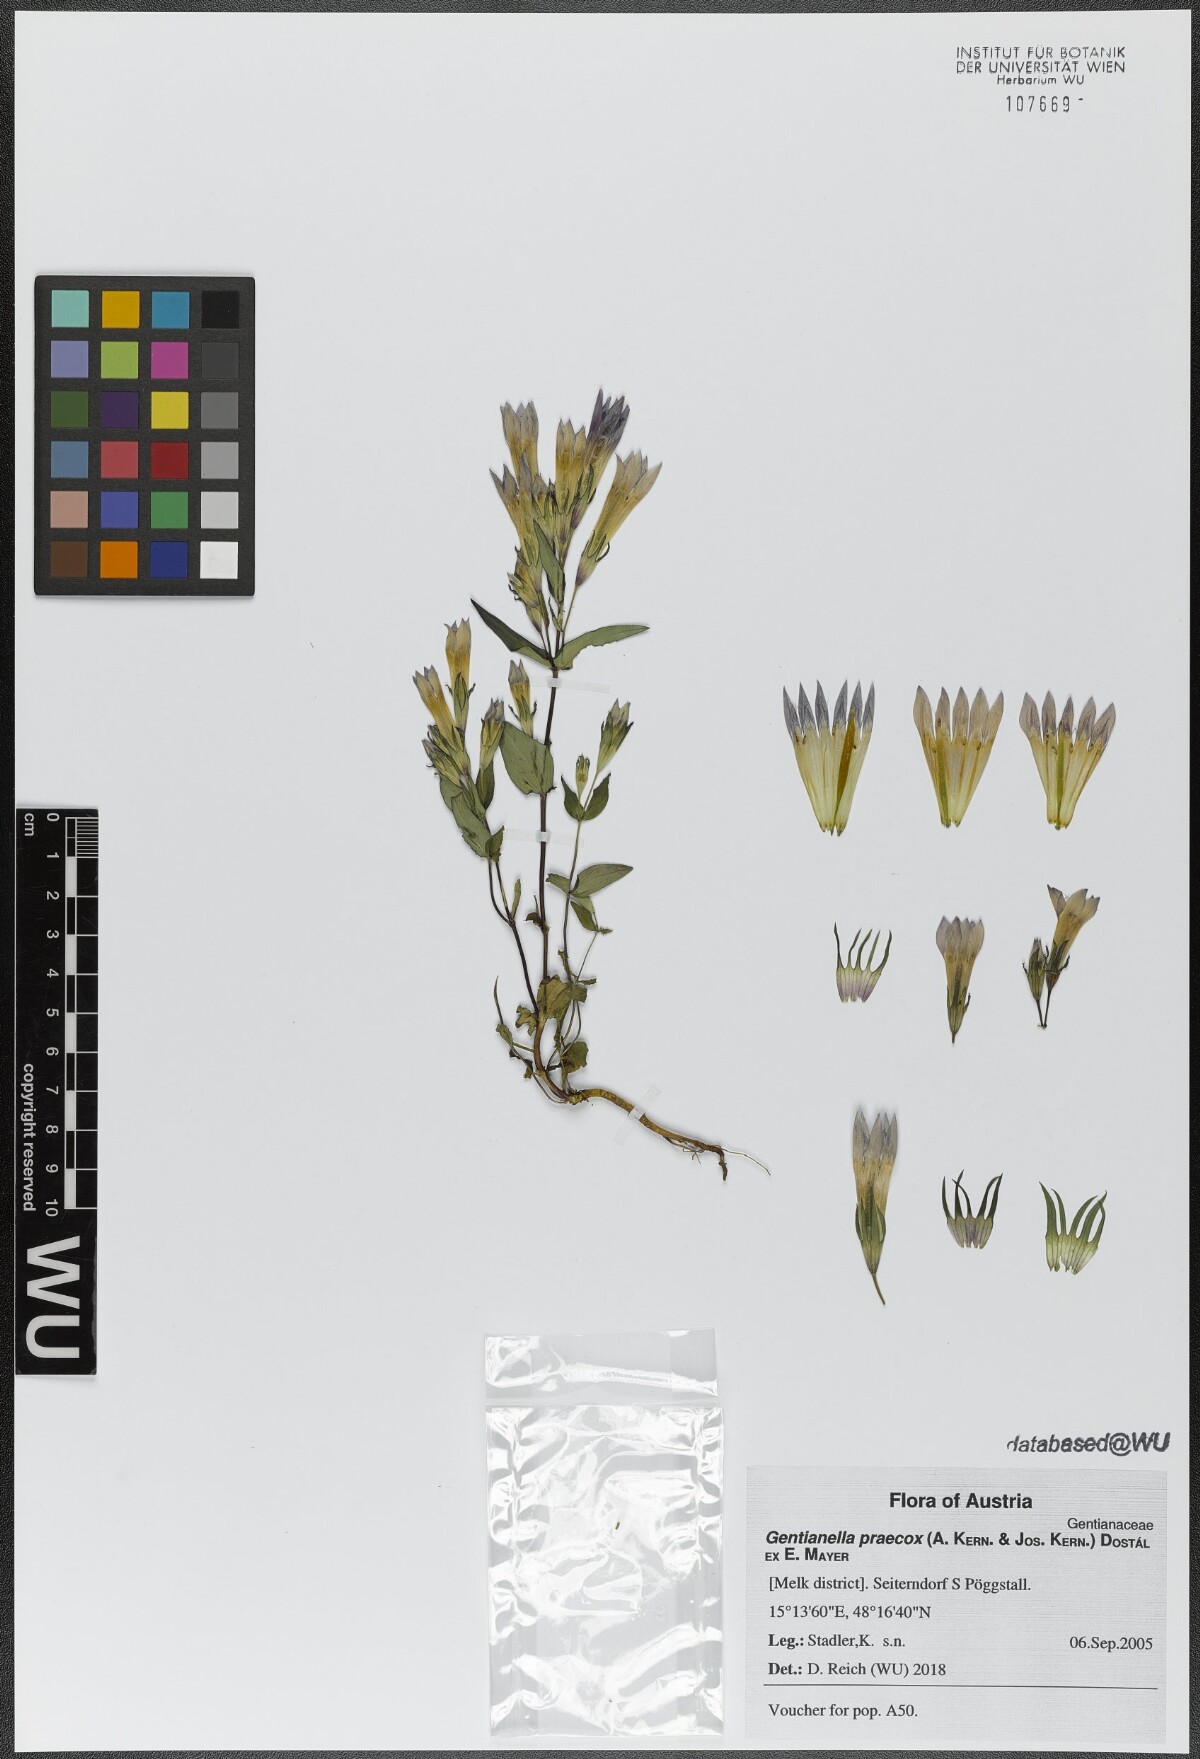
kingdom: Plantae
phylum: Tracheophyta
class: Magnoliopsida
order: Gentianales
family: Gentianaceae
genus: Gentianella
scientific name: Gentianella praecox
